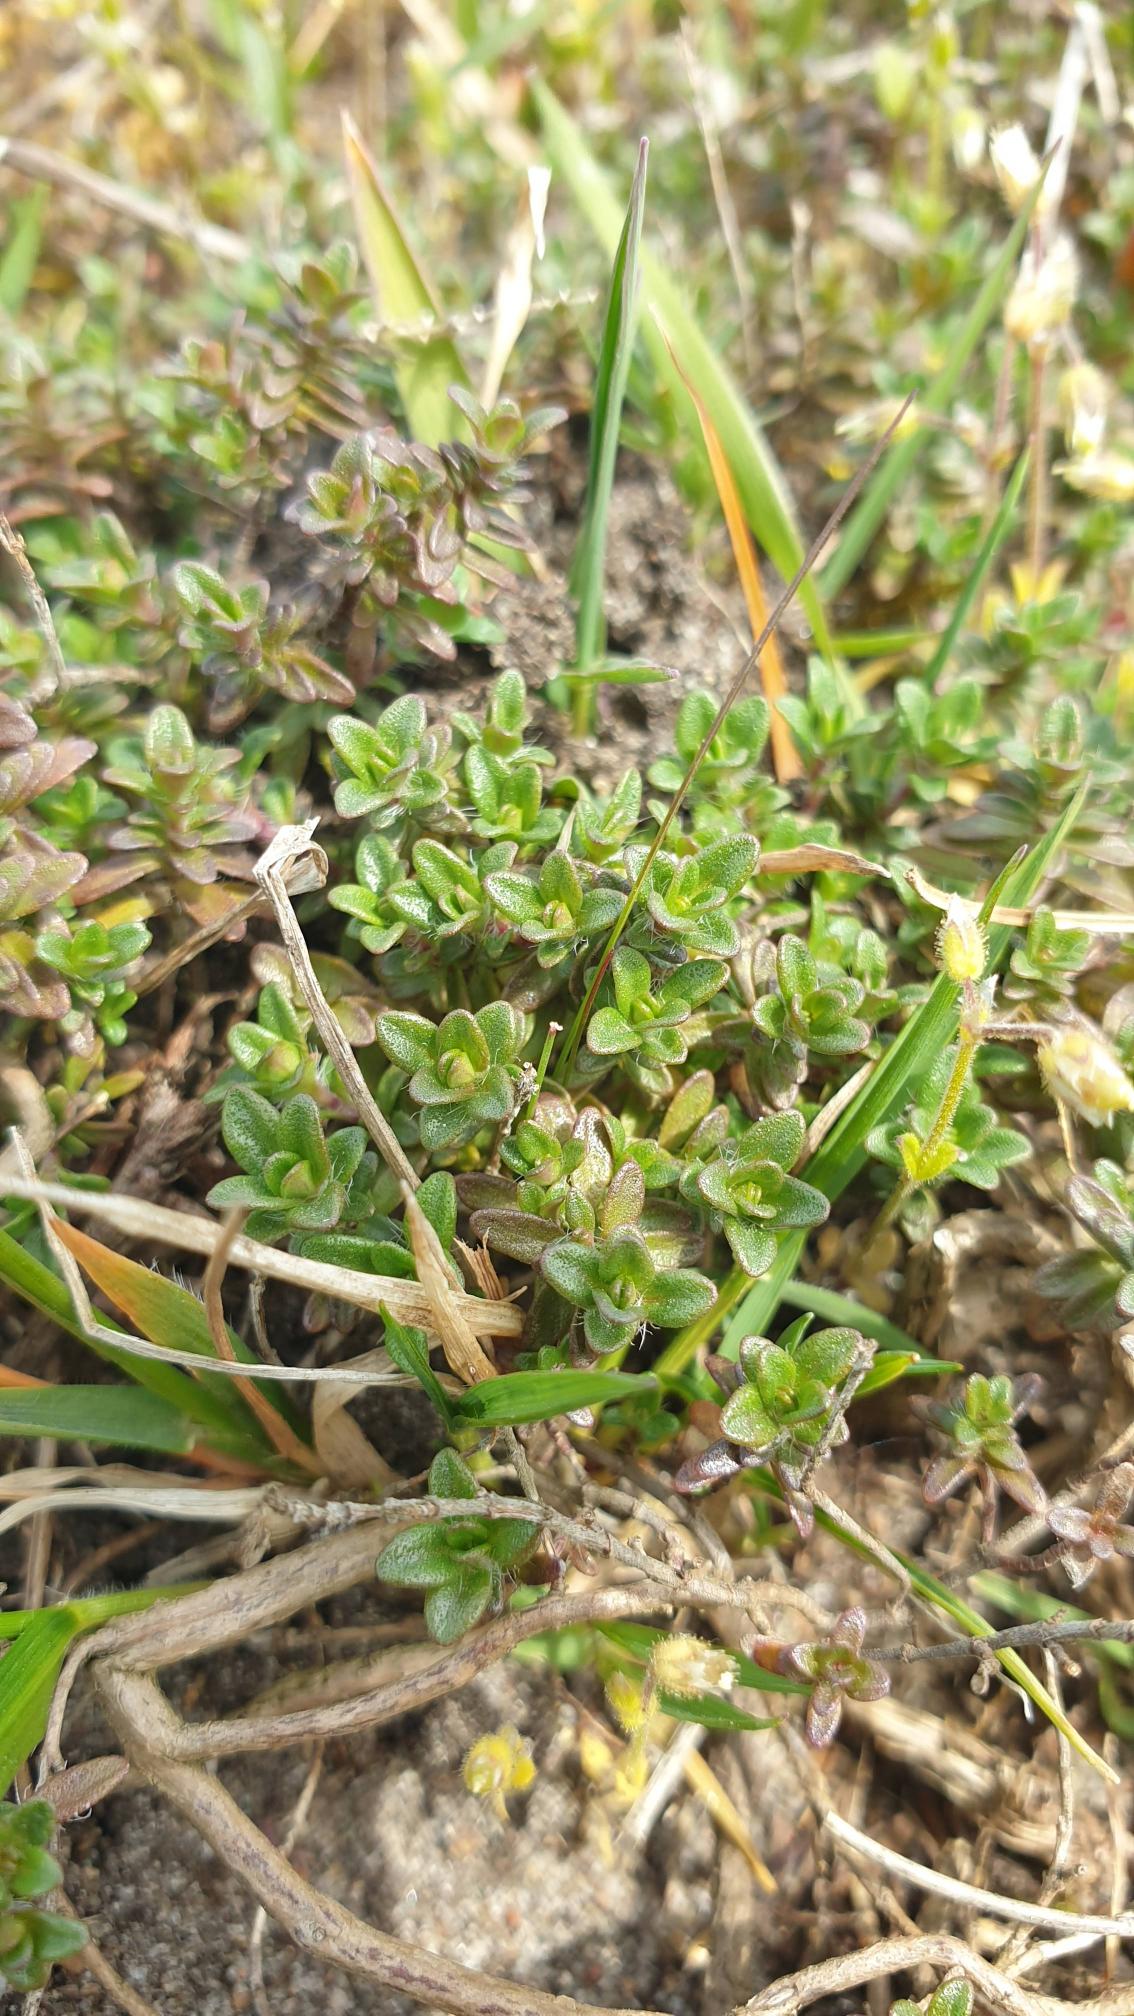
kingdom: Plantae
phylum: Tracheophyta
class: Magnoliopsida
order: Lamiales
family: Lamiaceae
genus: Thymus
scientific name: Thymus serpyllum
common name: Smalbladet timian
